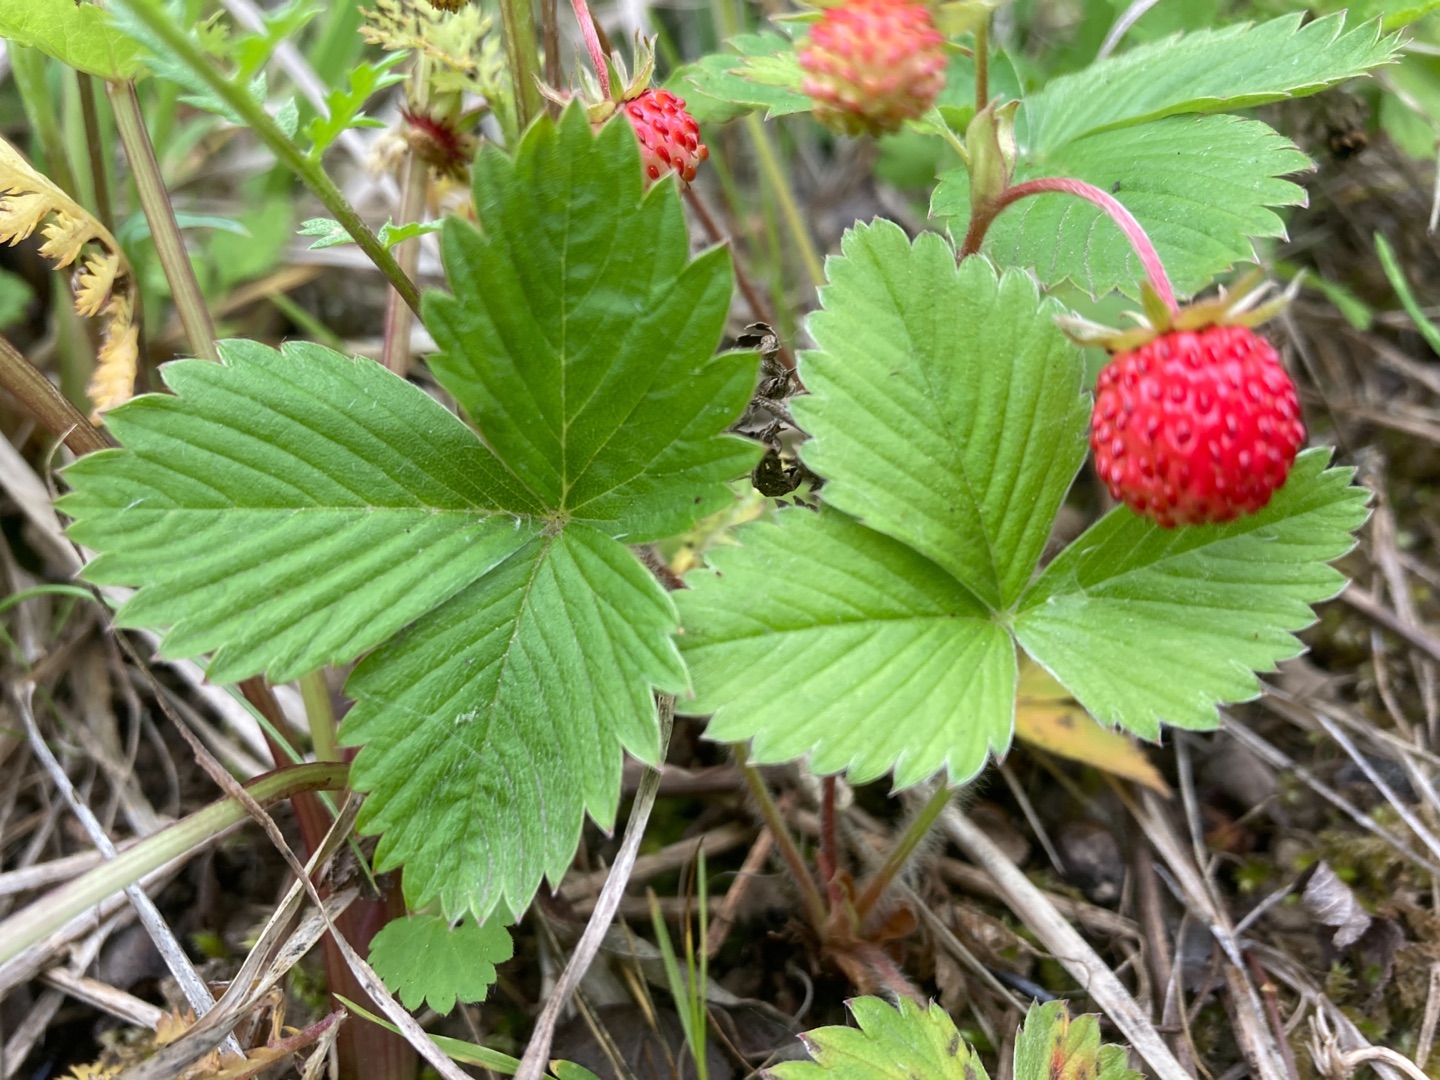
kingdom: Plantae
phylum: Tracheophyta
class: Magnoliopsida
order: Rosales
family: Rosaceae
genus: Fragaria
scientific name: Fragaria vesca
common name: Skov-jordbær
